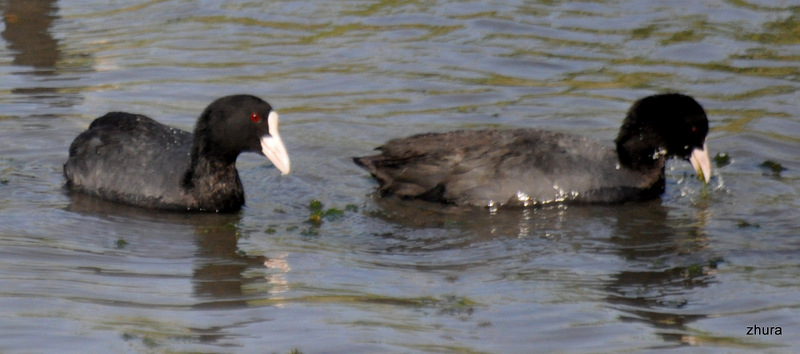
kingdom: Animalia
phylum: Chordata
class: Aves
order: Gruiformes
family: Rallidae
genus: Fulica
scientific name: Fulica atra
